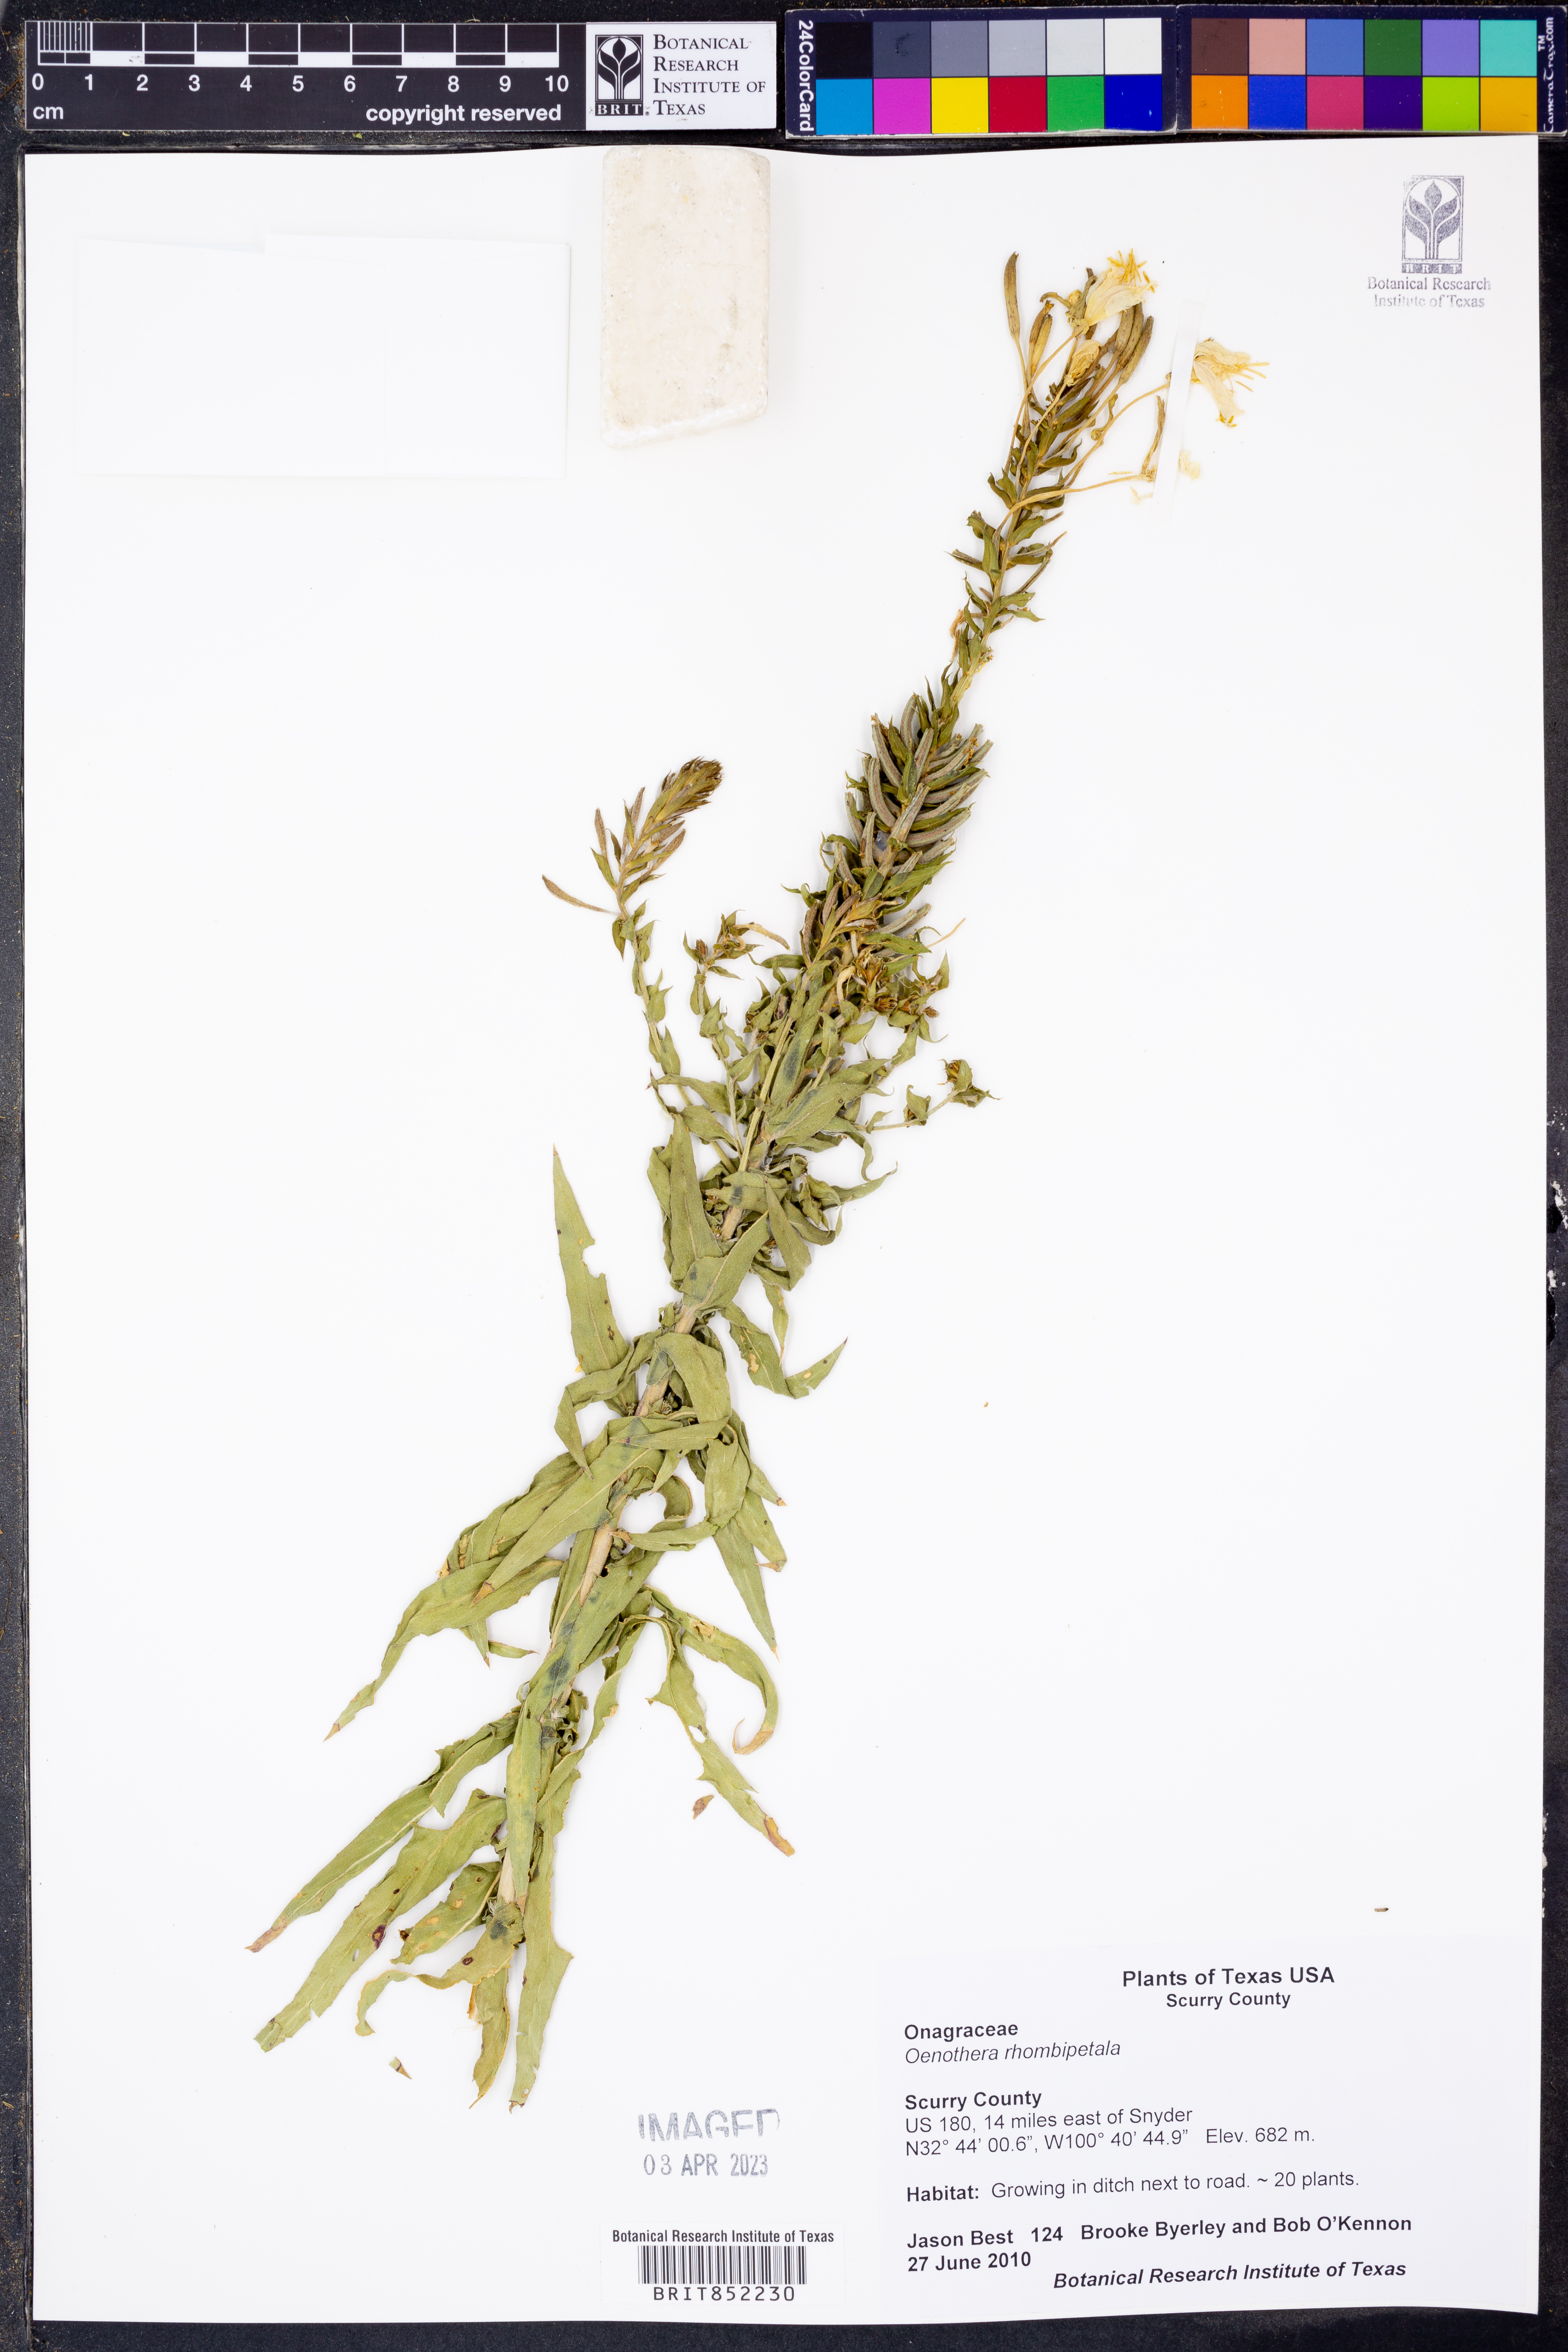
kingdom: Plantae
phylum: Tracheophyta
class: Magnoliopsida
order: Myrtales
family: Onagraceae
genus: Oenothera
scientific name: Oenothera rhombipetala
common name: Four-points evening-primrose
